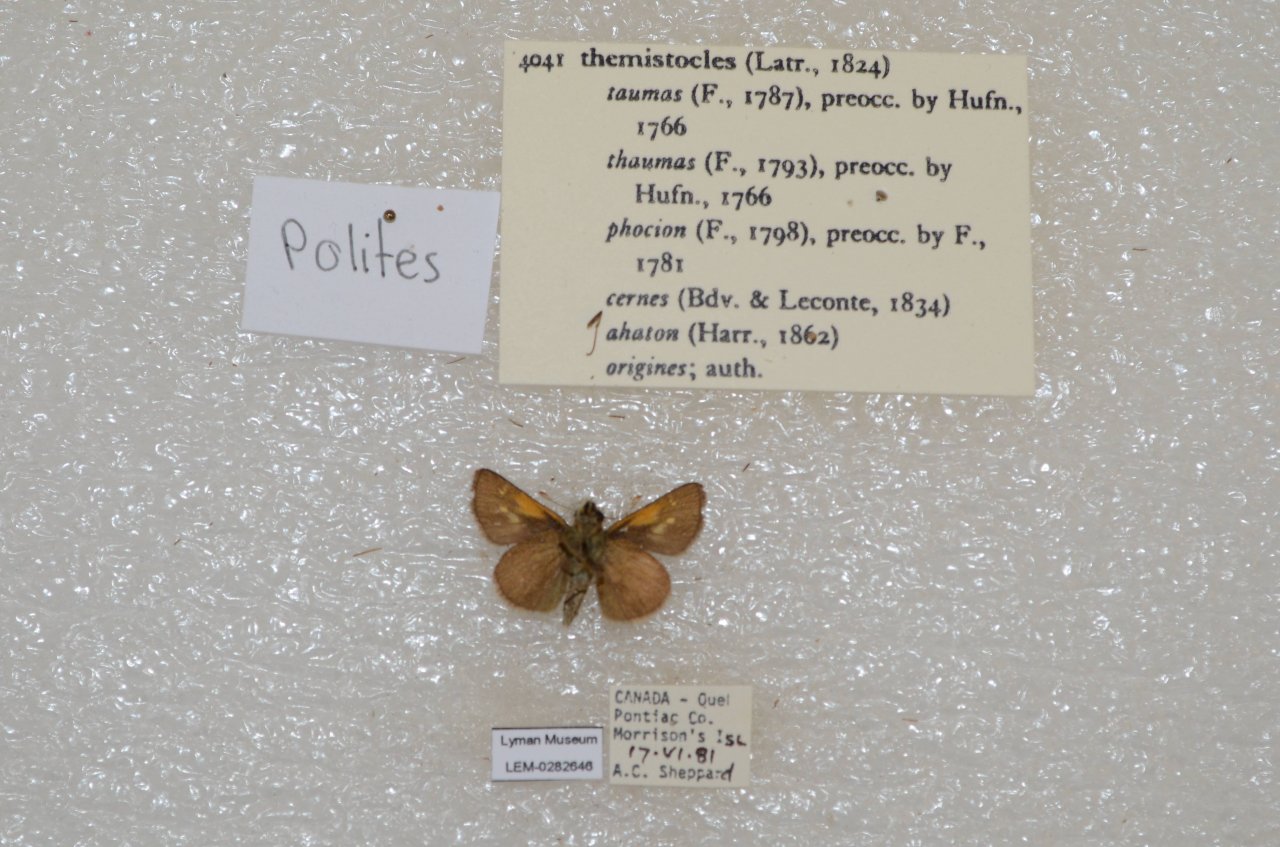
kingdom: Animalia
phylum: Arthropoda
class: Insecta
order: Lepidoptera
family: Hesperiidae
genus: Polites
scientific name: Polites themistocles
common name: Tawny-edged Skipper
